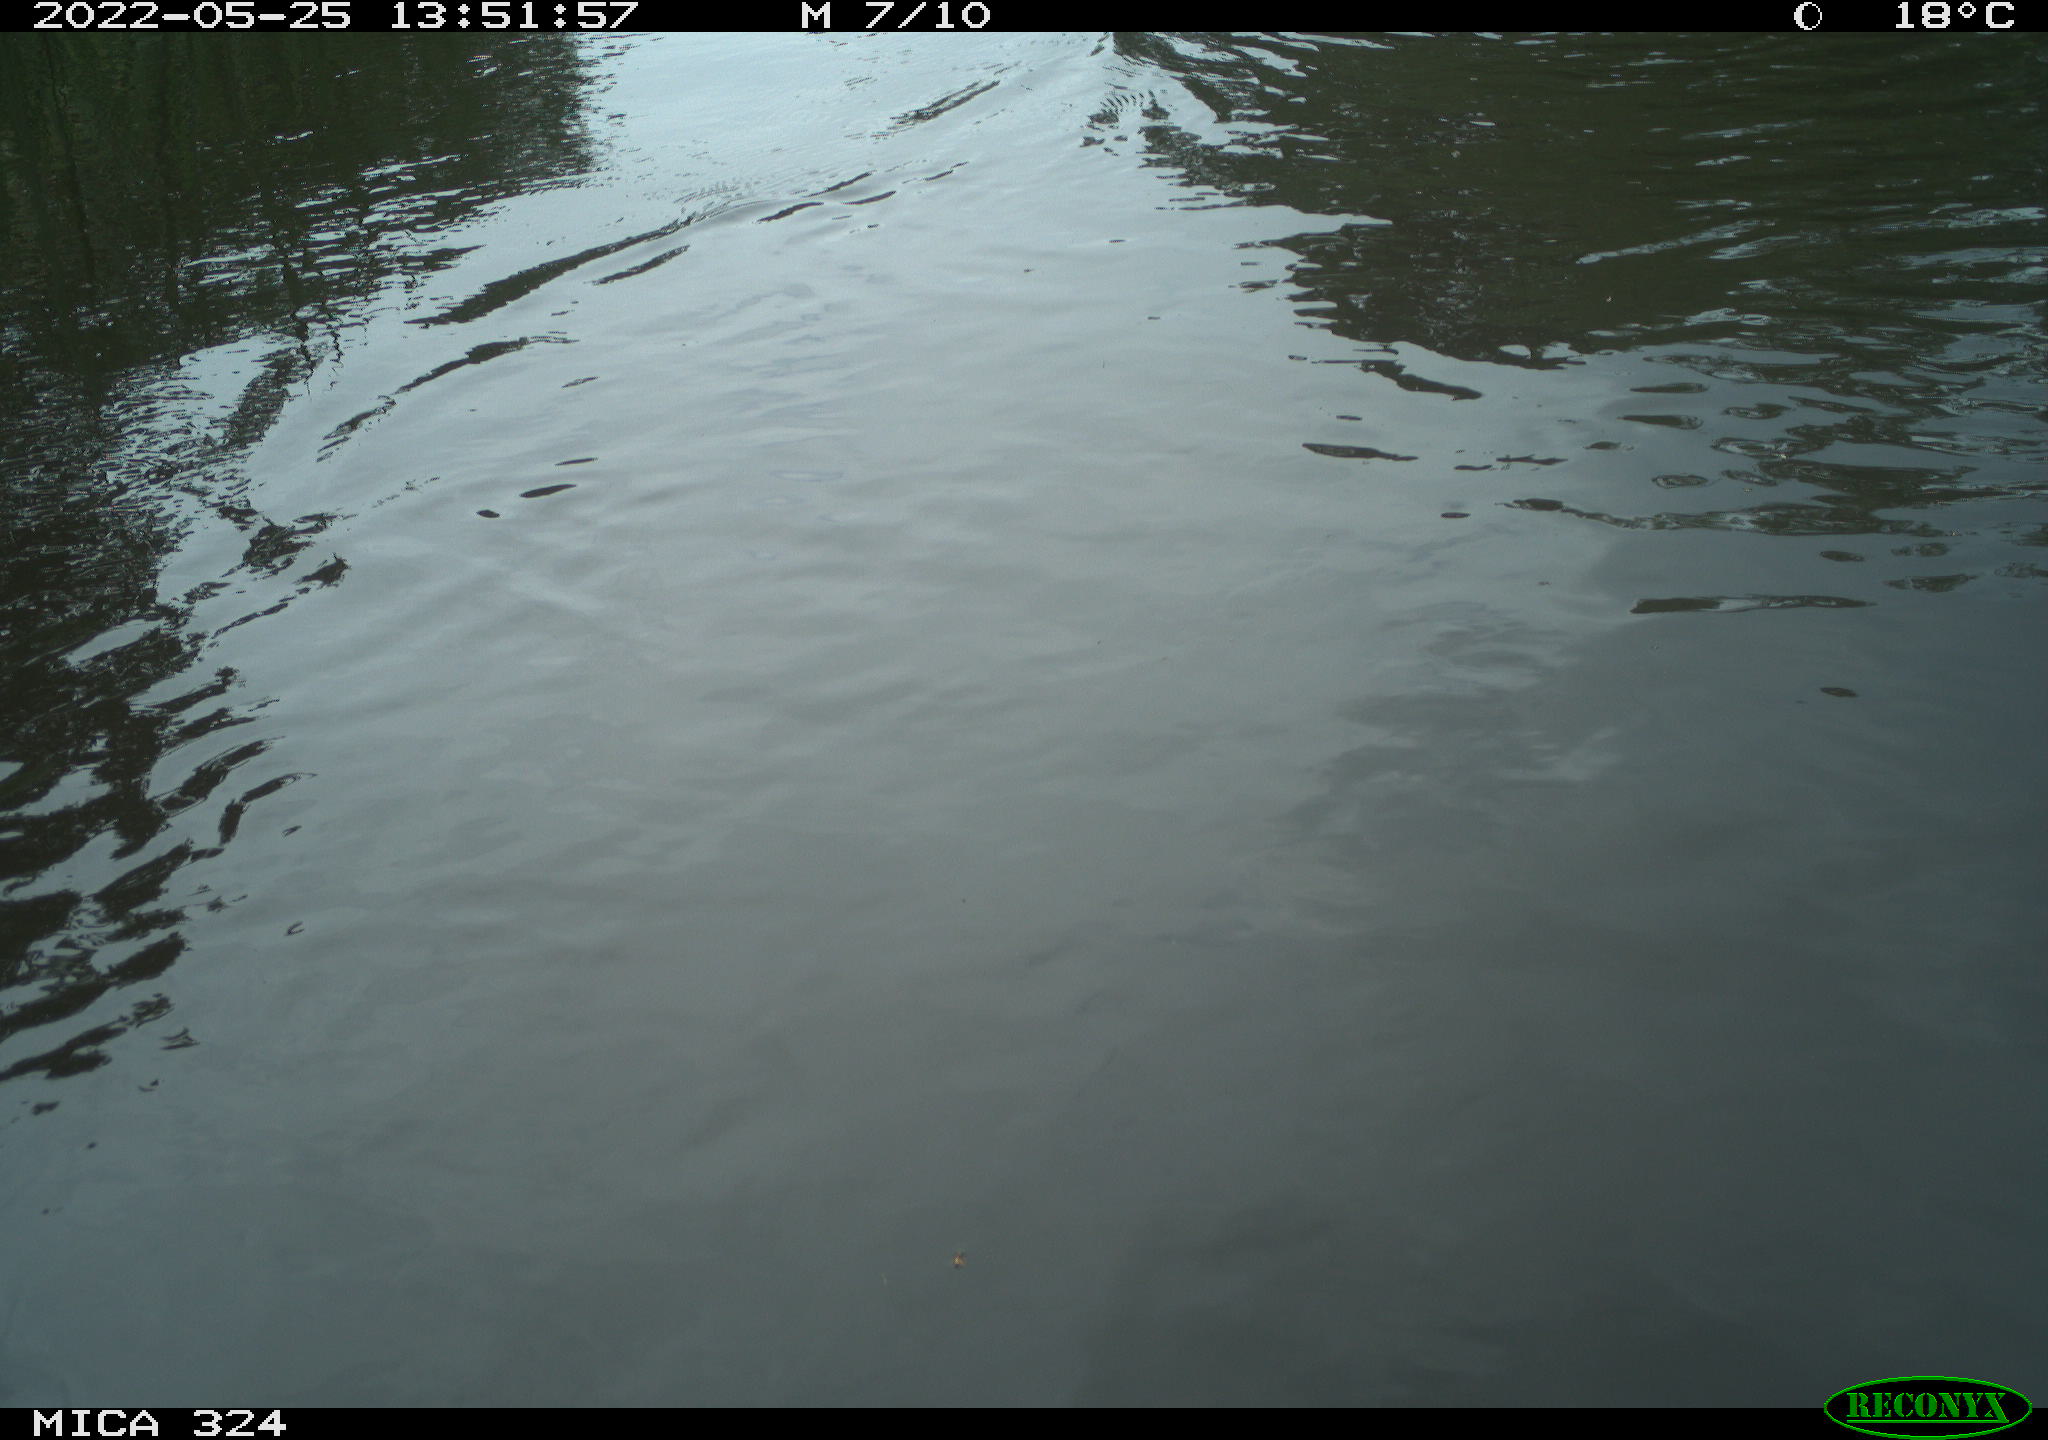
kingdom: Animalia
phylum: Chordata
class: Mammalia
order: Rodentia
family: Cricetidae
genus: Ondatra
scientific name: Ondatra zibethicus
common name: Muskrat
